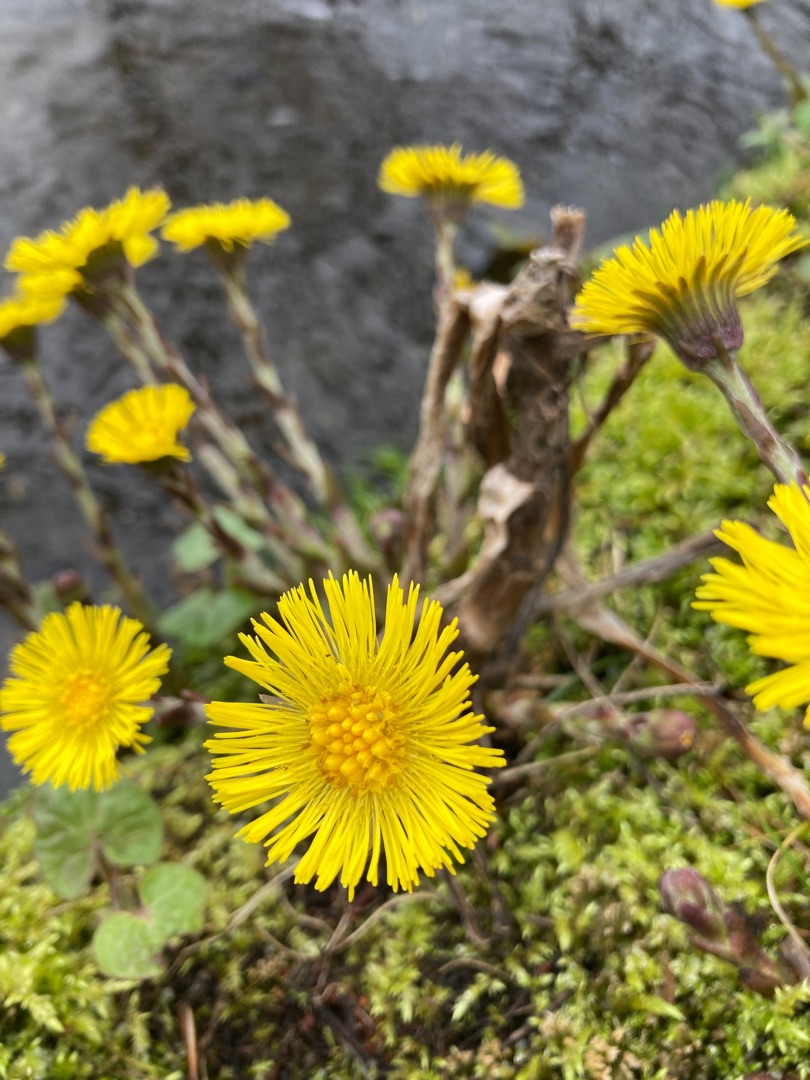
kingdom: Plantae
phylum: Tracheophyta
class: Magnoliopsida
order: Asterales
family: Asteraceae
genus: Tussilago
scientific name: Tussilago farfara
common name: Følfod
